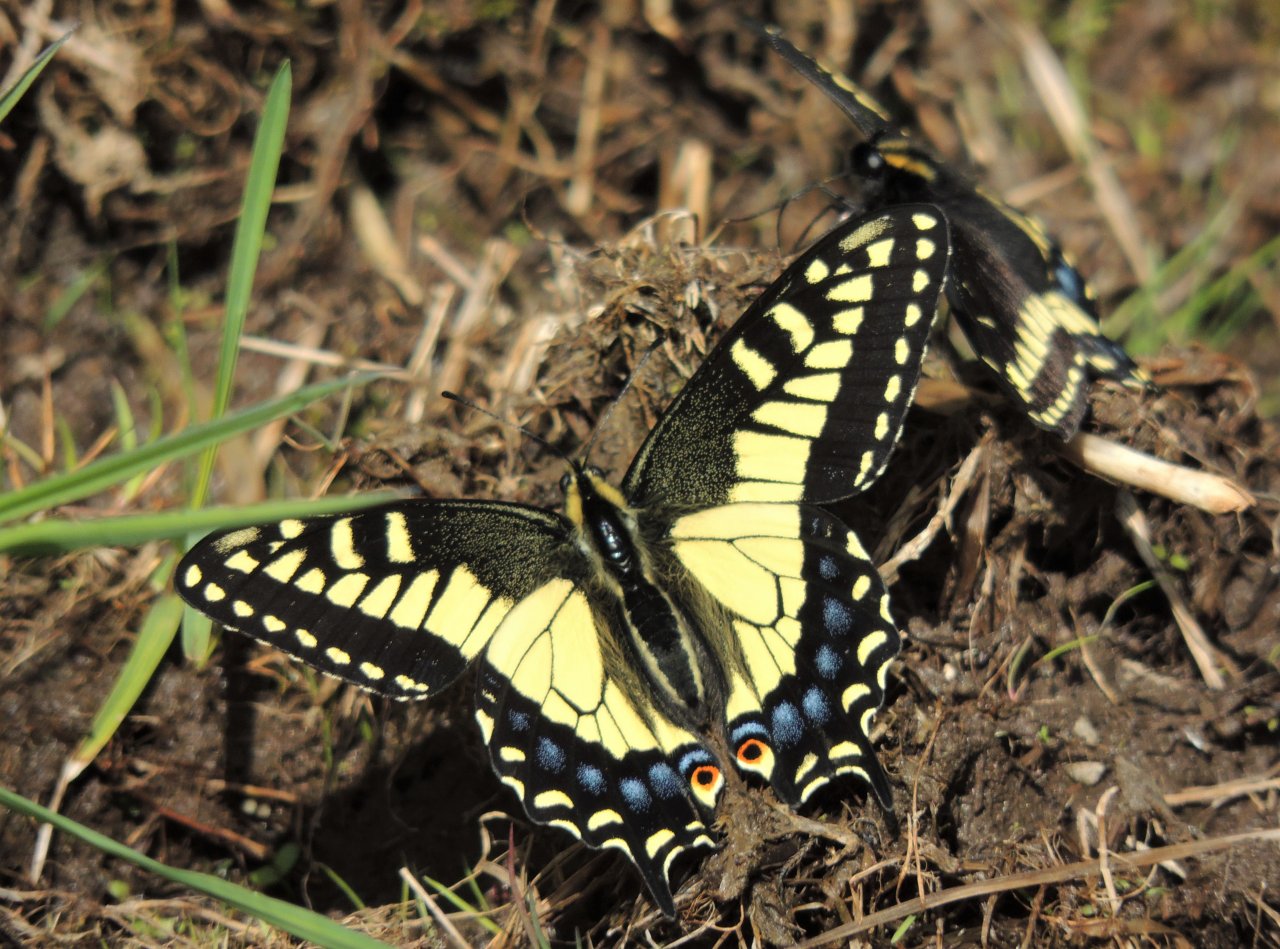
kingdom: Animalia
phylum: Arthropoda
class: Insecta
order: Lepidoptera
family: Papilionidae
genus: Papilio
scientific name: Papilio zelicaon
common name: Anise Swallowtail
